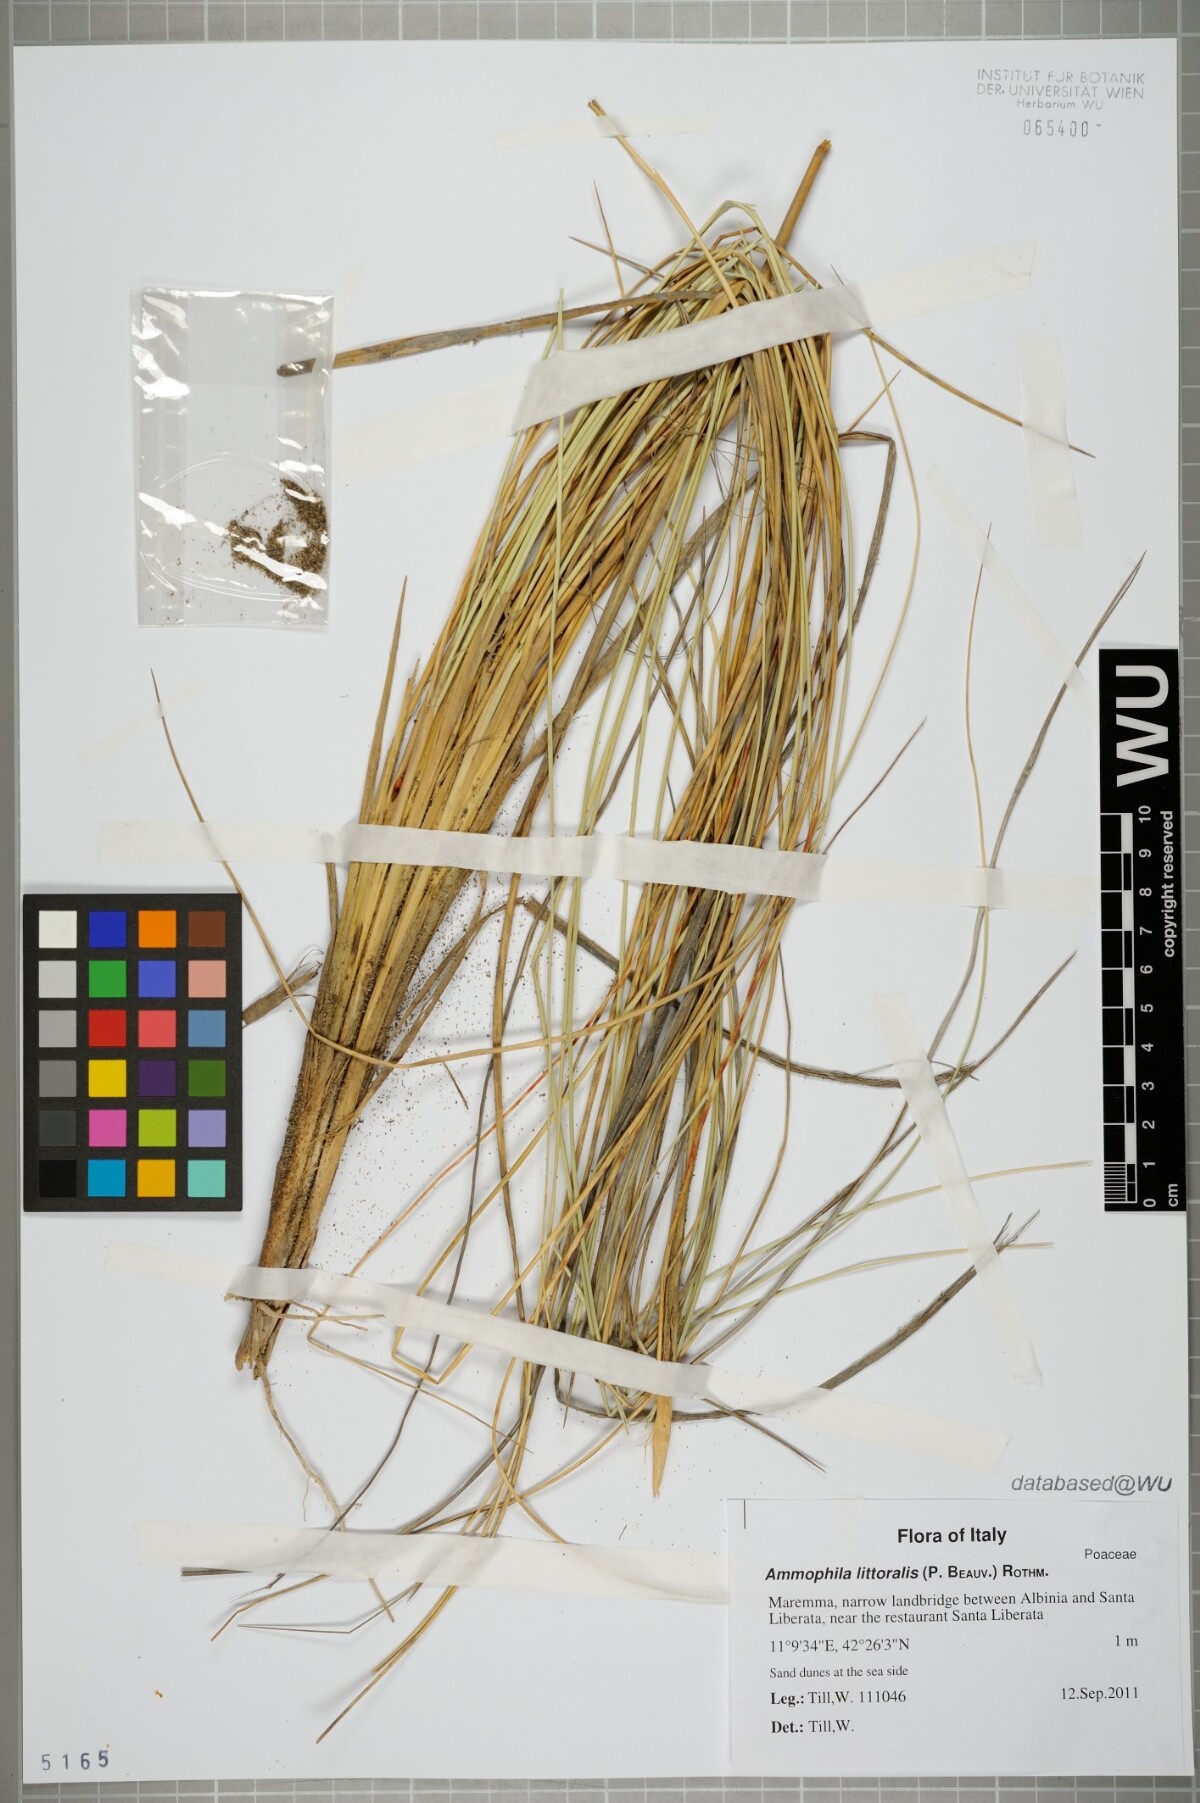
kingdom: Plantae
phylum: Tracheophyta
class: Liliopsida
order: Poales
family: Poaceae
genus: Calamagrostis
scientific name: Calamagrostis arenaria
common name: European beachgrass
